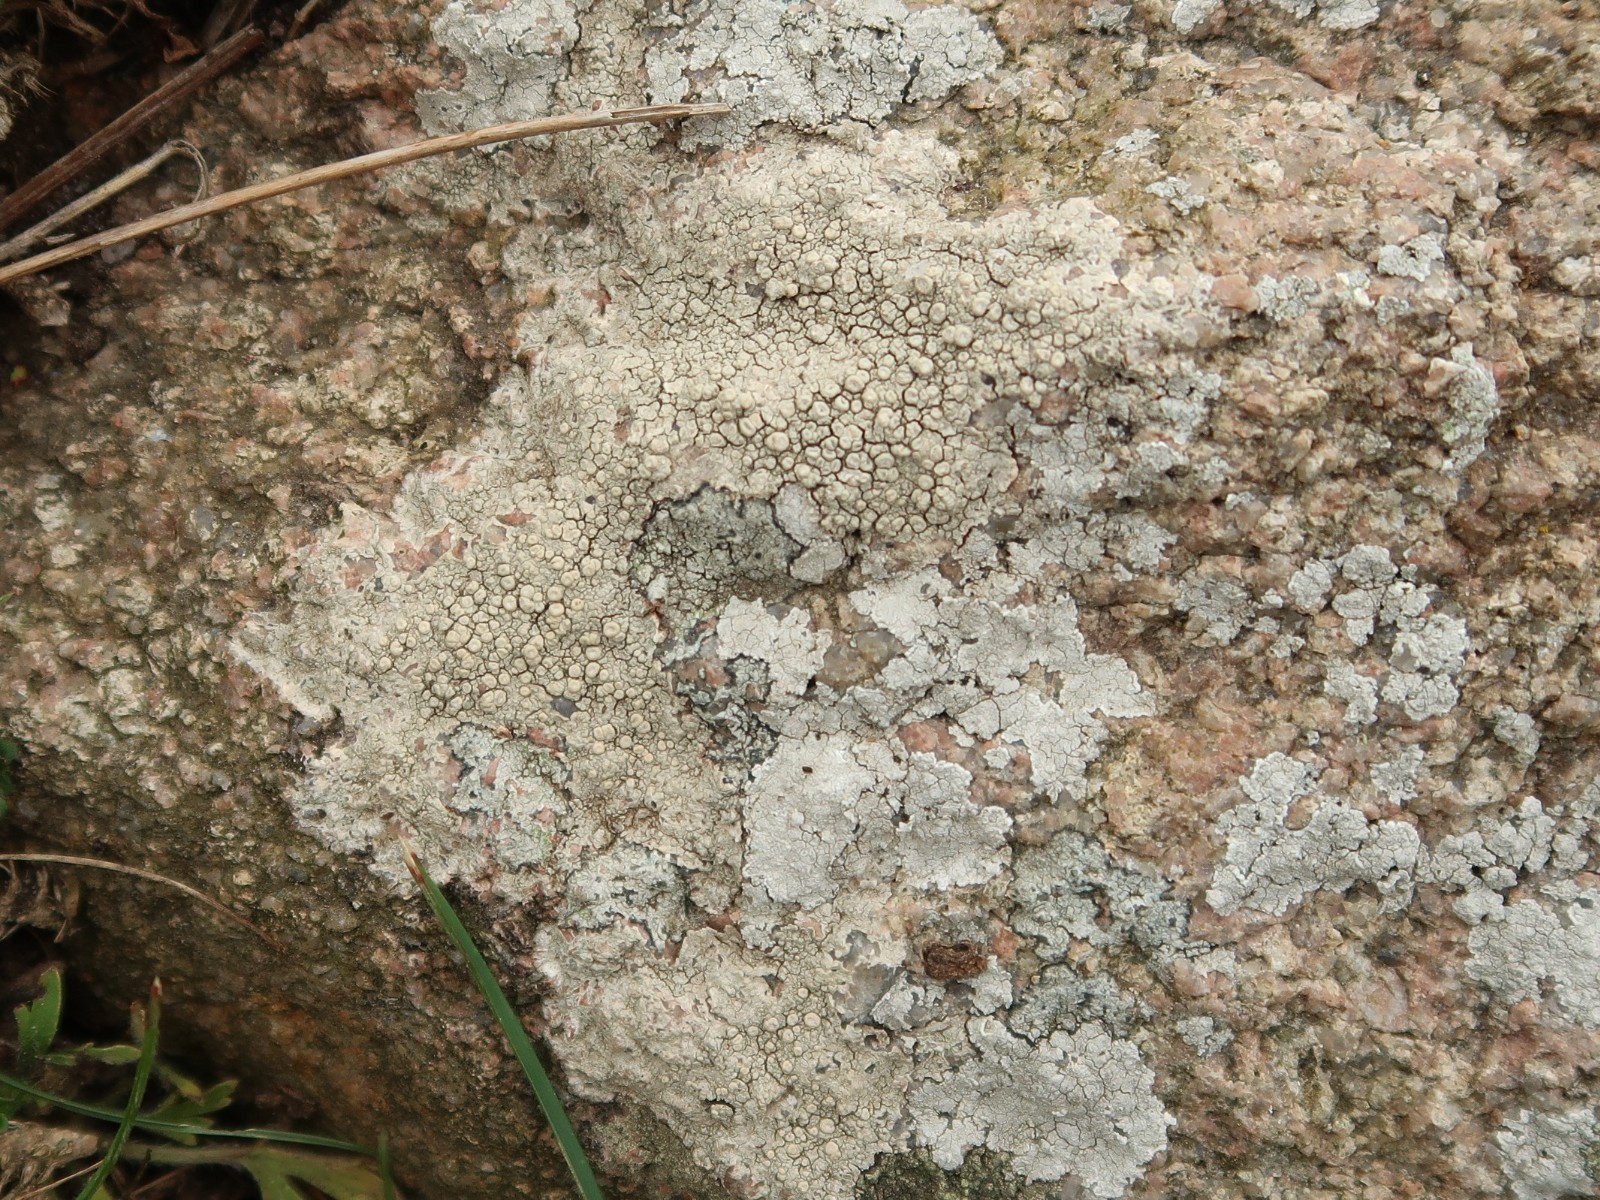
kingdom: Fungi
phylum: Ascomycota
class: Lecanoromycetes
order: Pertusariales
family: Ochrolechiaceae
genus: Ochrolechia
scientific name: Ochrolechia parella
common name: almindelig blegskivelav
